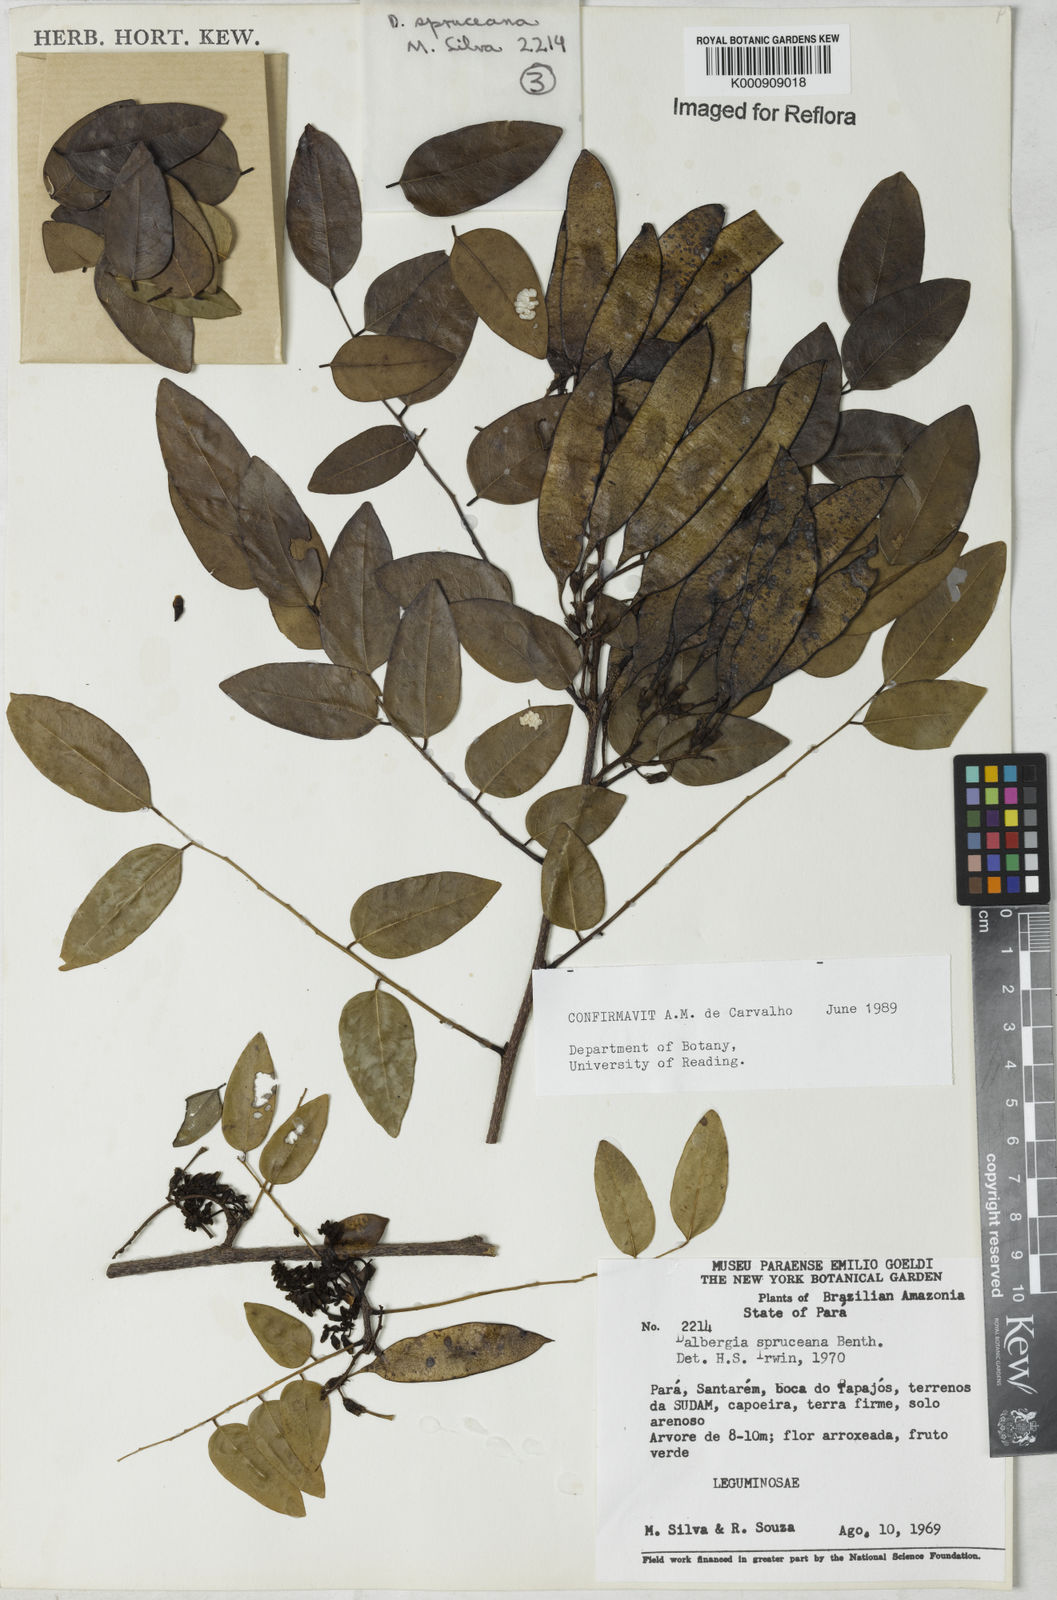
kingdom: Plantae
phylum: Tracheophyta
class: Magnoliopsida
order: Fabales
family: Fabaceae
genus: Dalbergia
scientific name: Dalbergia spruceana
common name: Amazon rosewood
